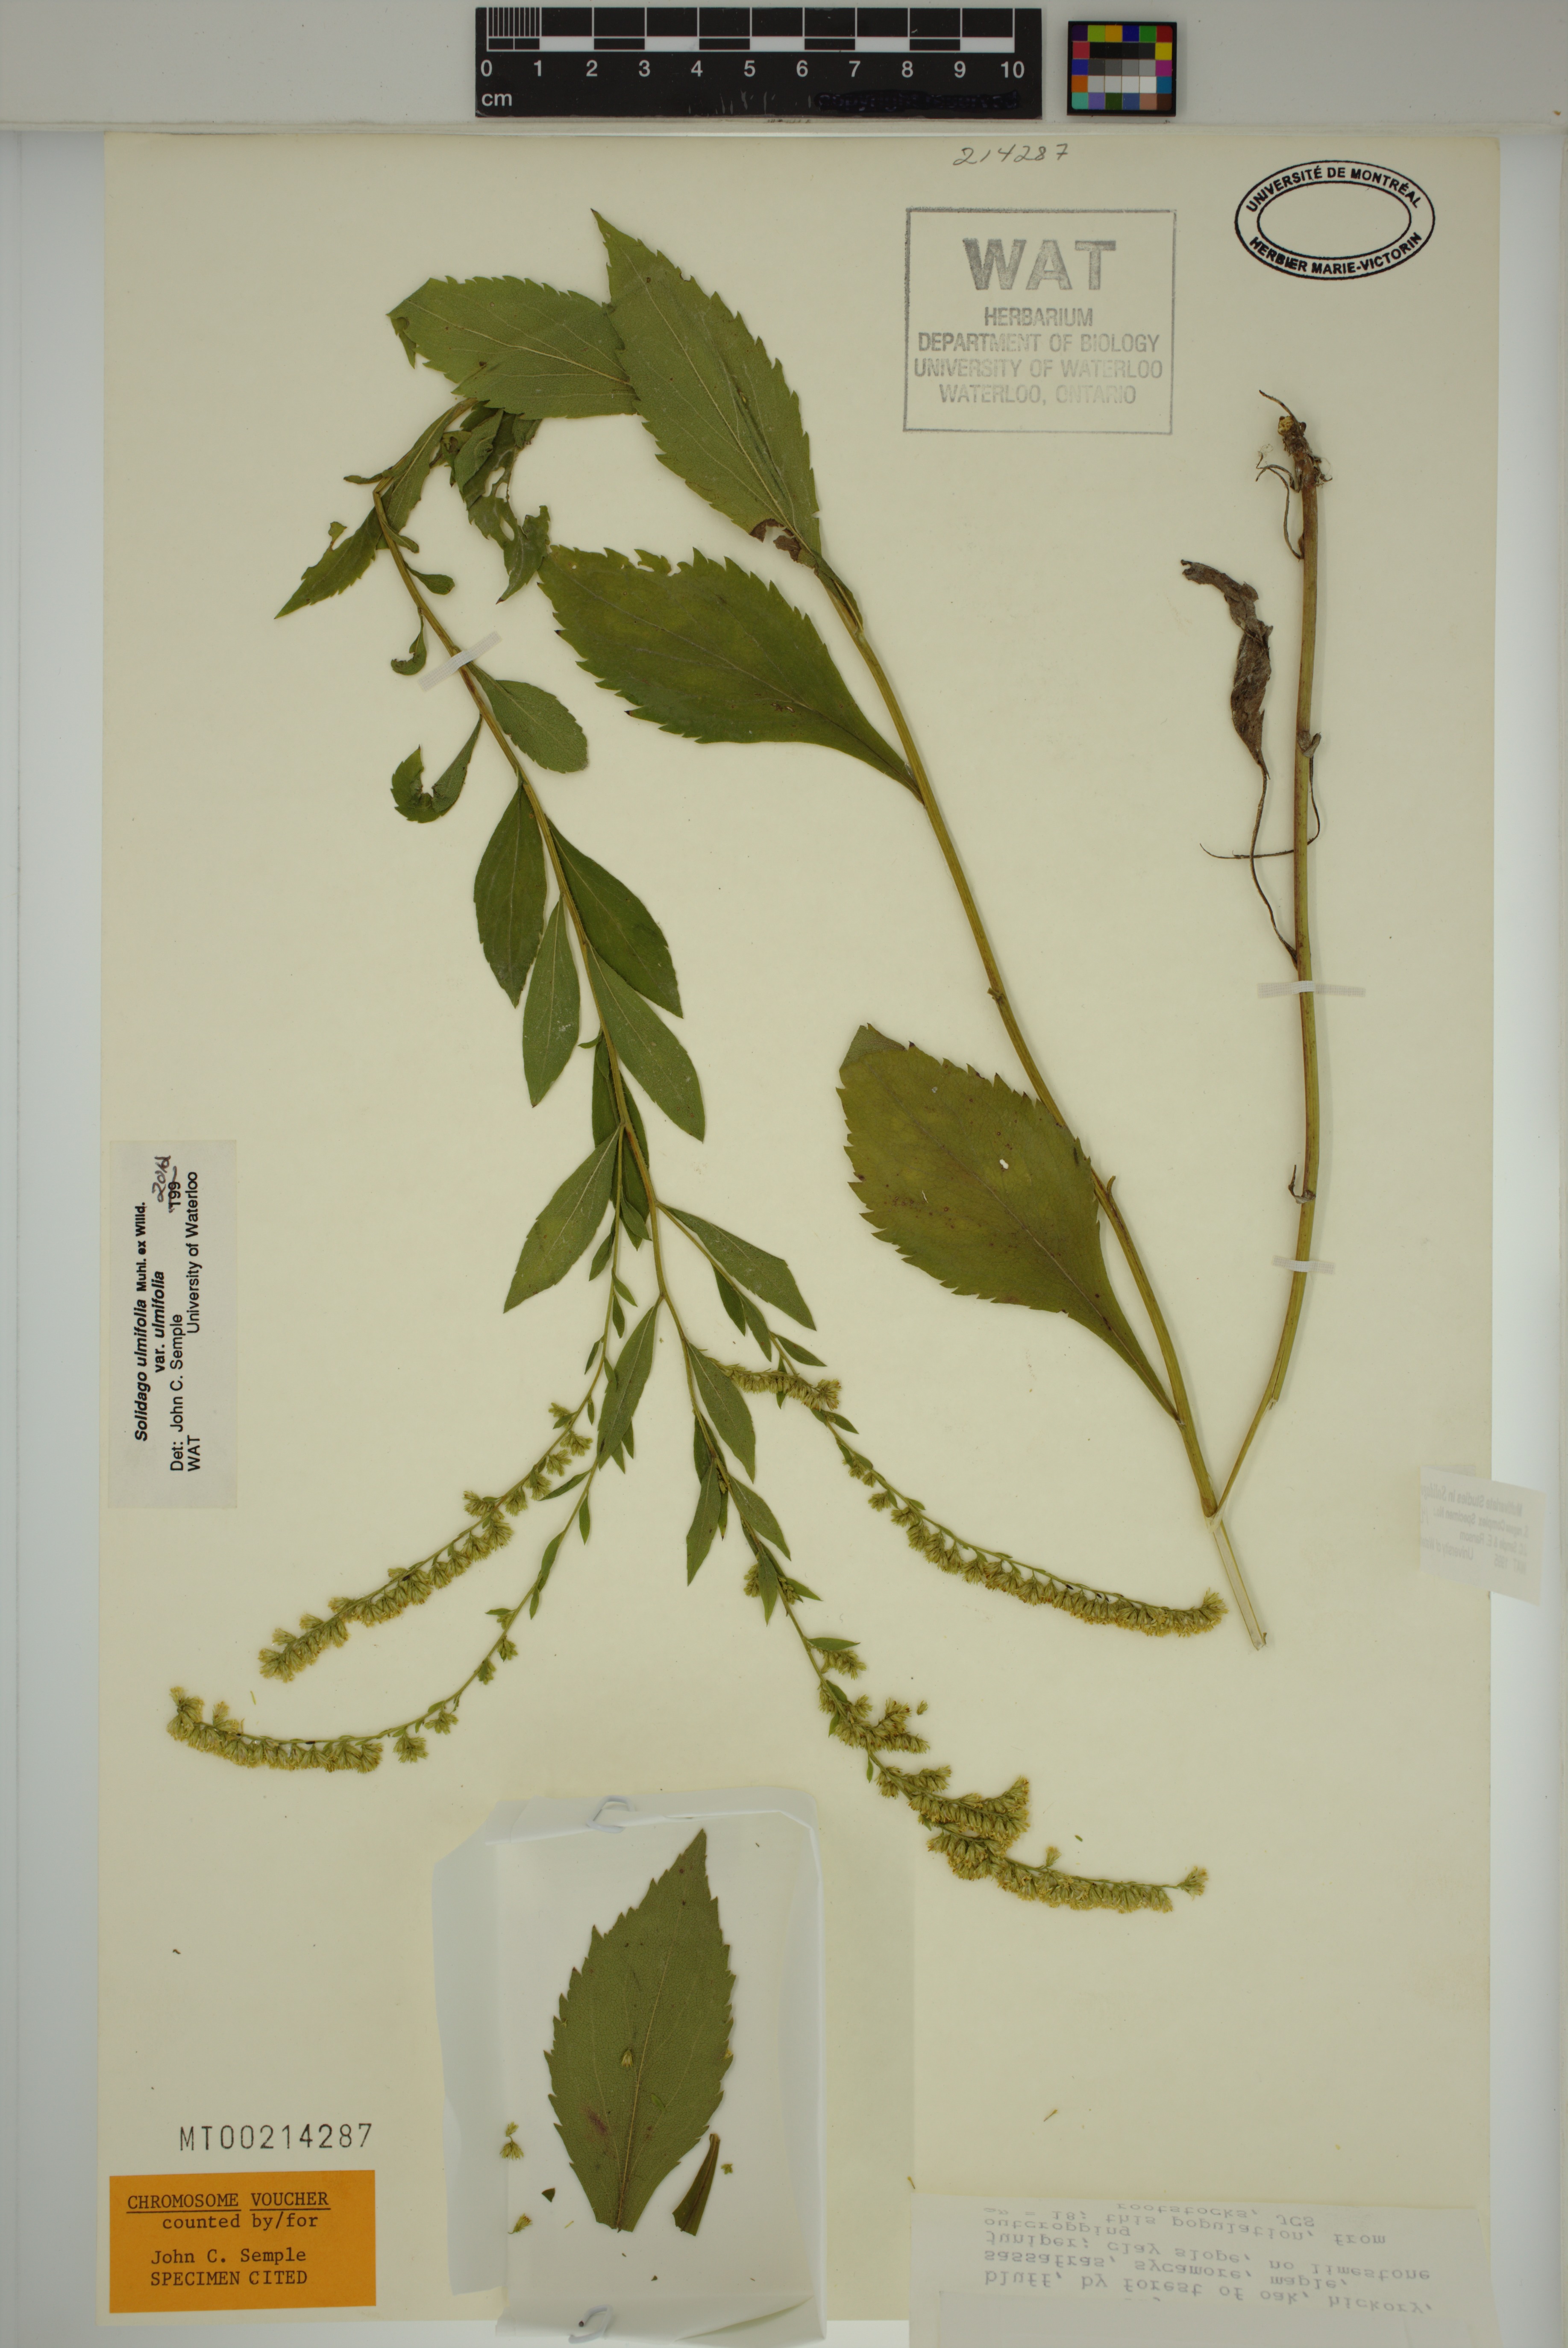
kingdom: Plantae
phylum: Tracheophyta
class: Magnoliopsida
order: Asterales
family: Asteraceae
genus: Solidago
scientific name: Solidago ulmifolia
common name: Elm-leaf goldenrod
